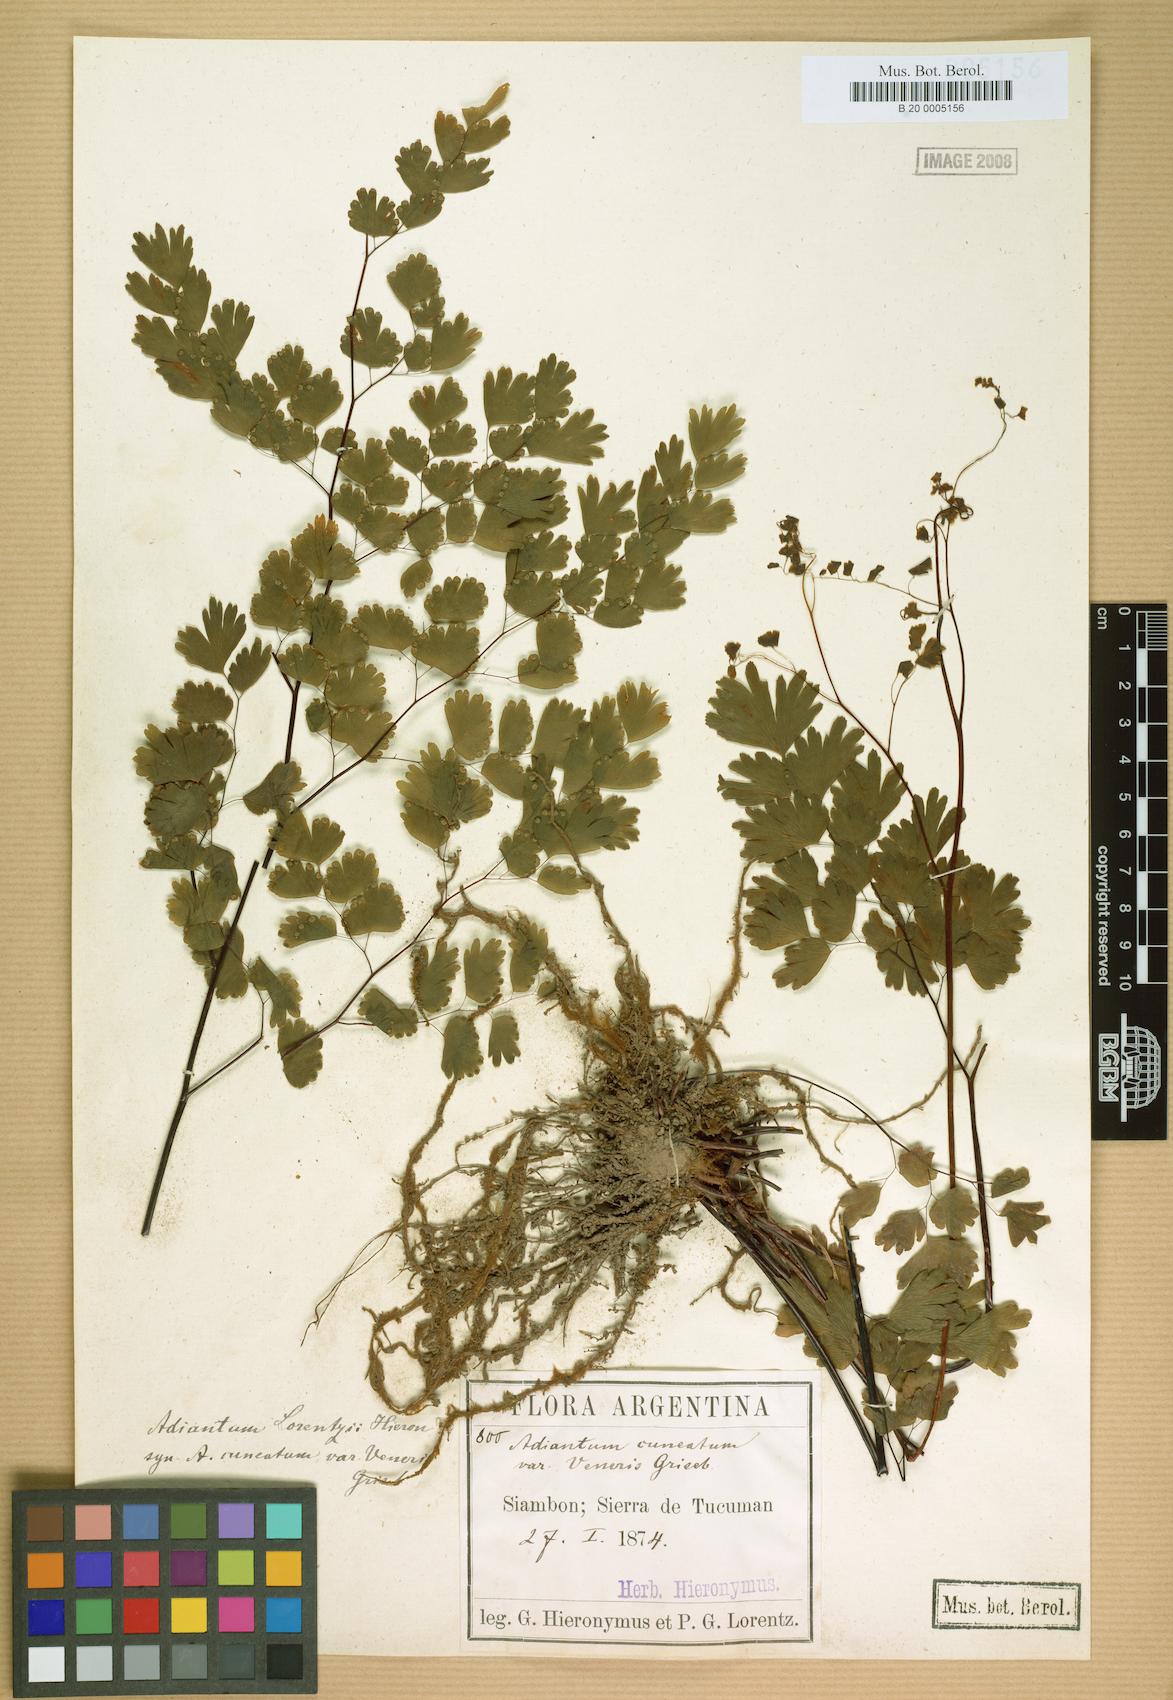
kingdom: Plantae
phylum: Tracheophyta
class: Polypodiopsida
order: Polypodiales
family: Pteridaceae
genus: Adiantum
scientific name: Adiantum lorentzii
